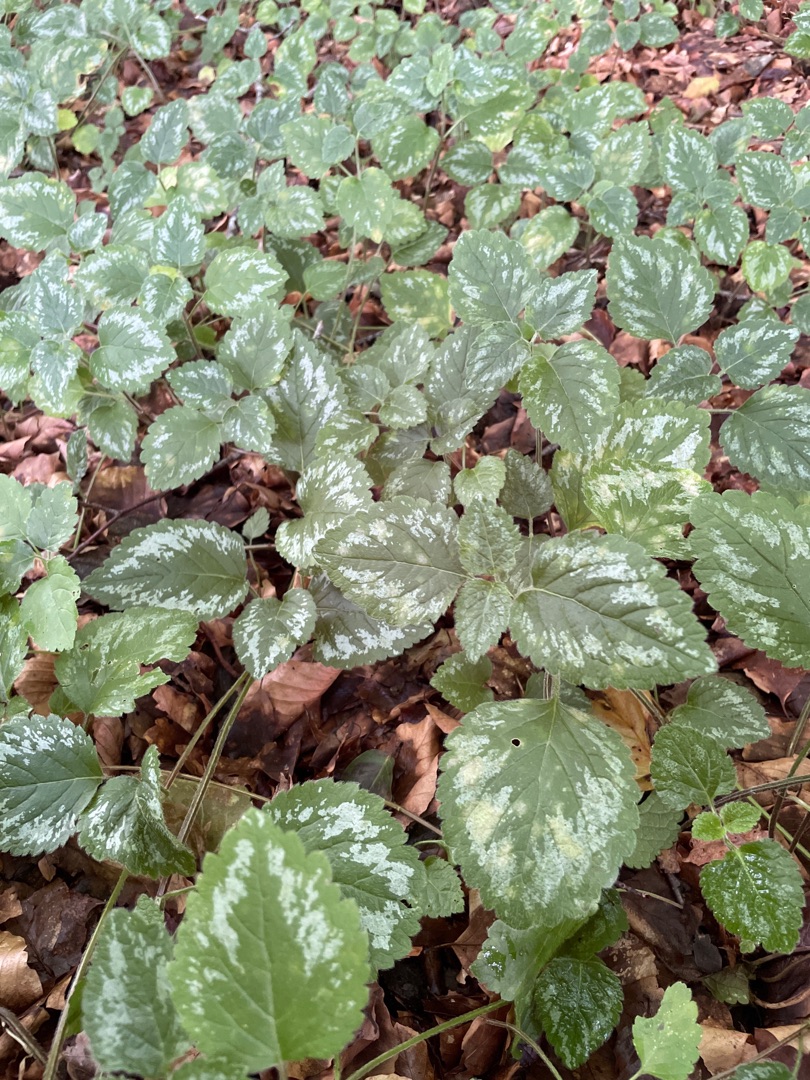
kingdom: Plantae
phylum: Tracheophyta
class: Magnoliopsida
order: Lamiales
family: Lamiaceae
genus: Lamium
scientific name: Lamium galeobdolon
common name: Have-guldnælde
